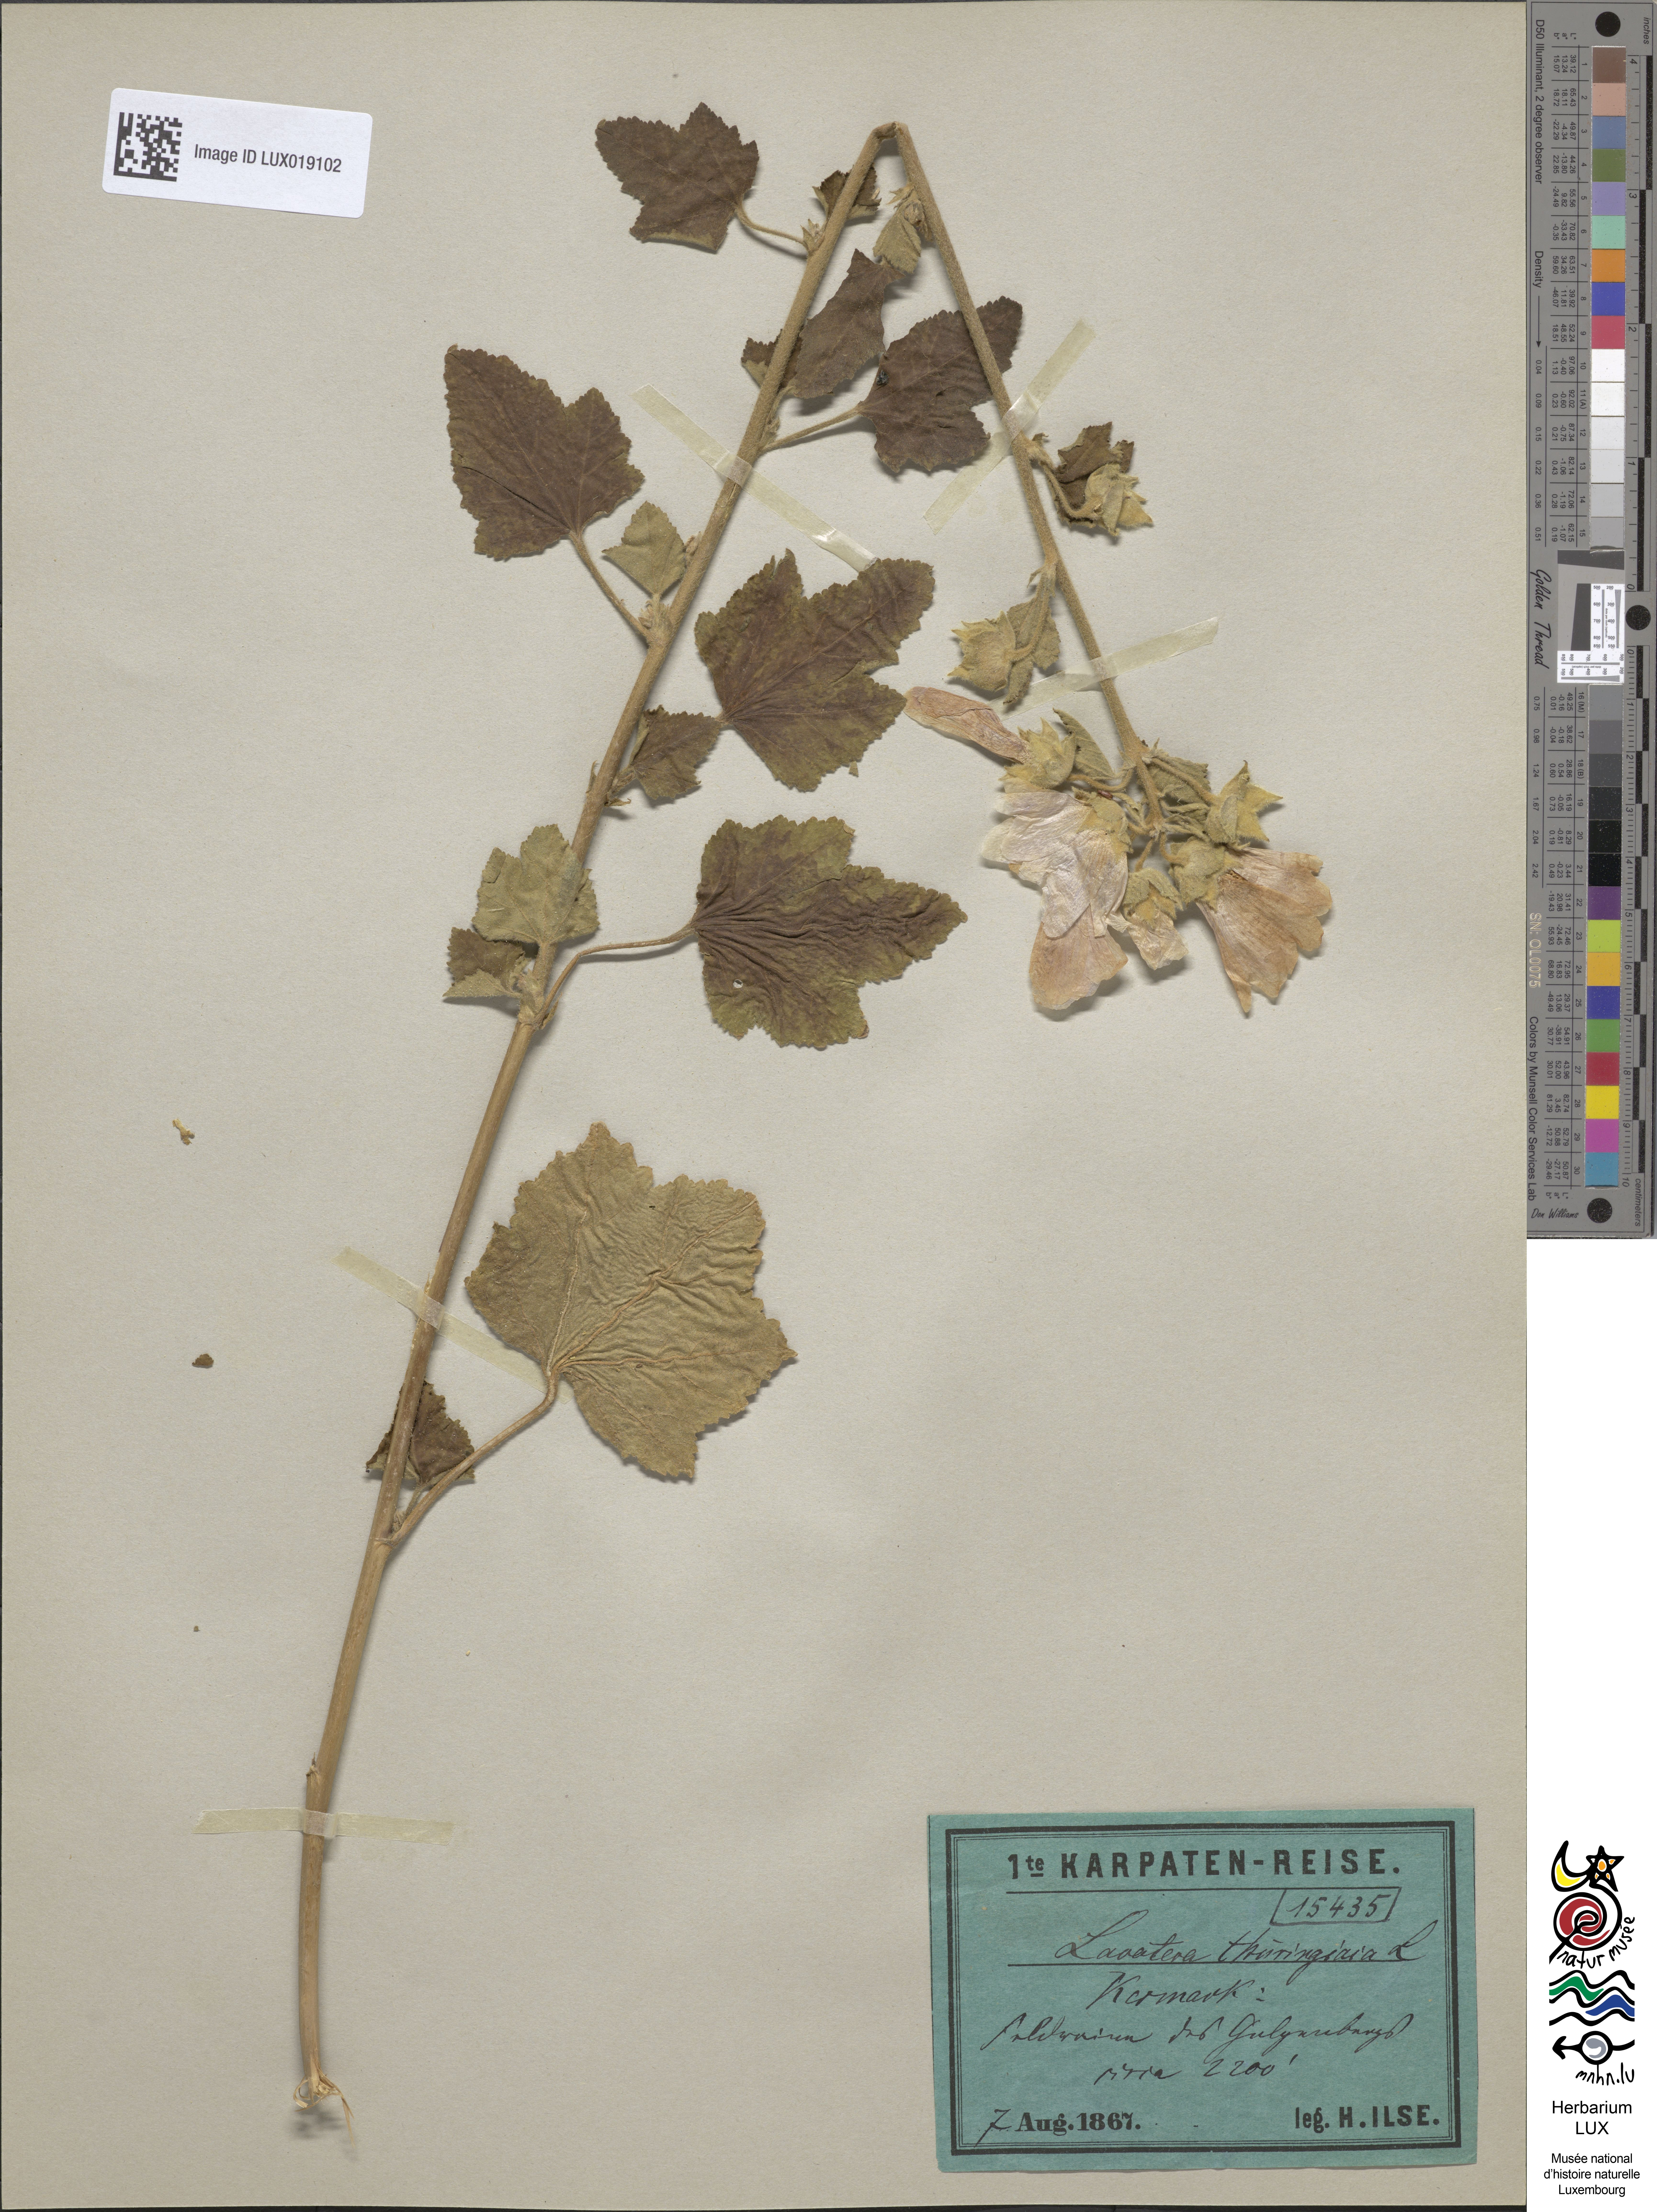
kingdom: Plantae
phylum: Tracheophyta
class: Magnoliopsida
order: Malvales
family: Malvaceae
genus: Malva
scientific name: Malva thuringiaca
